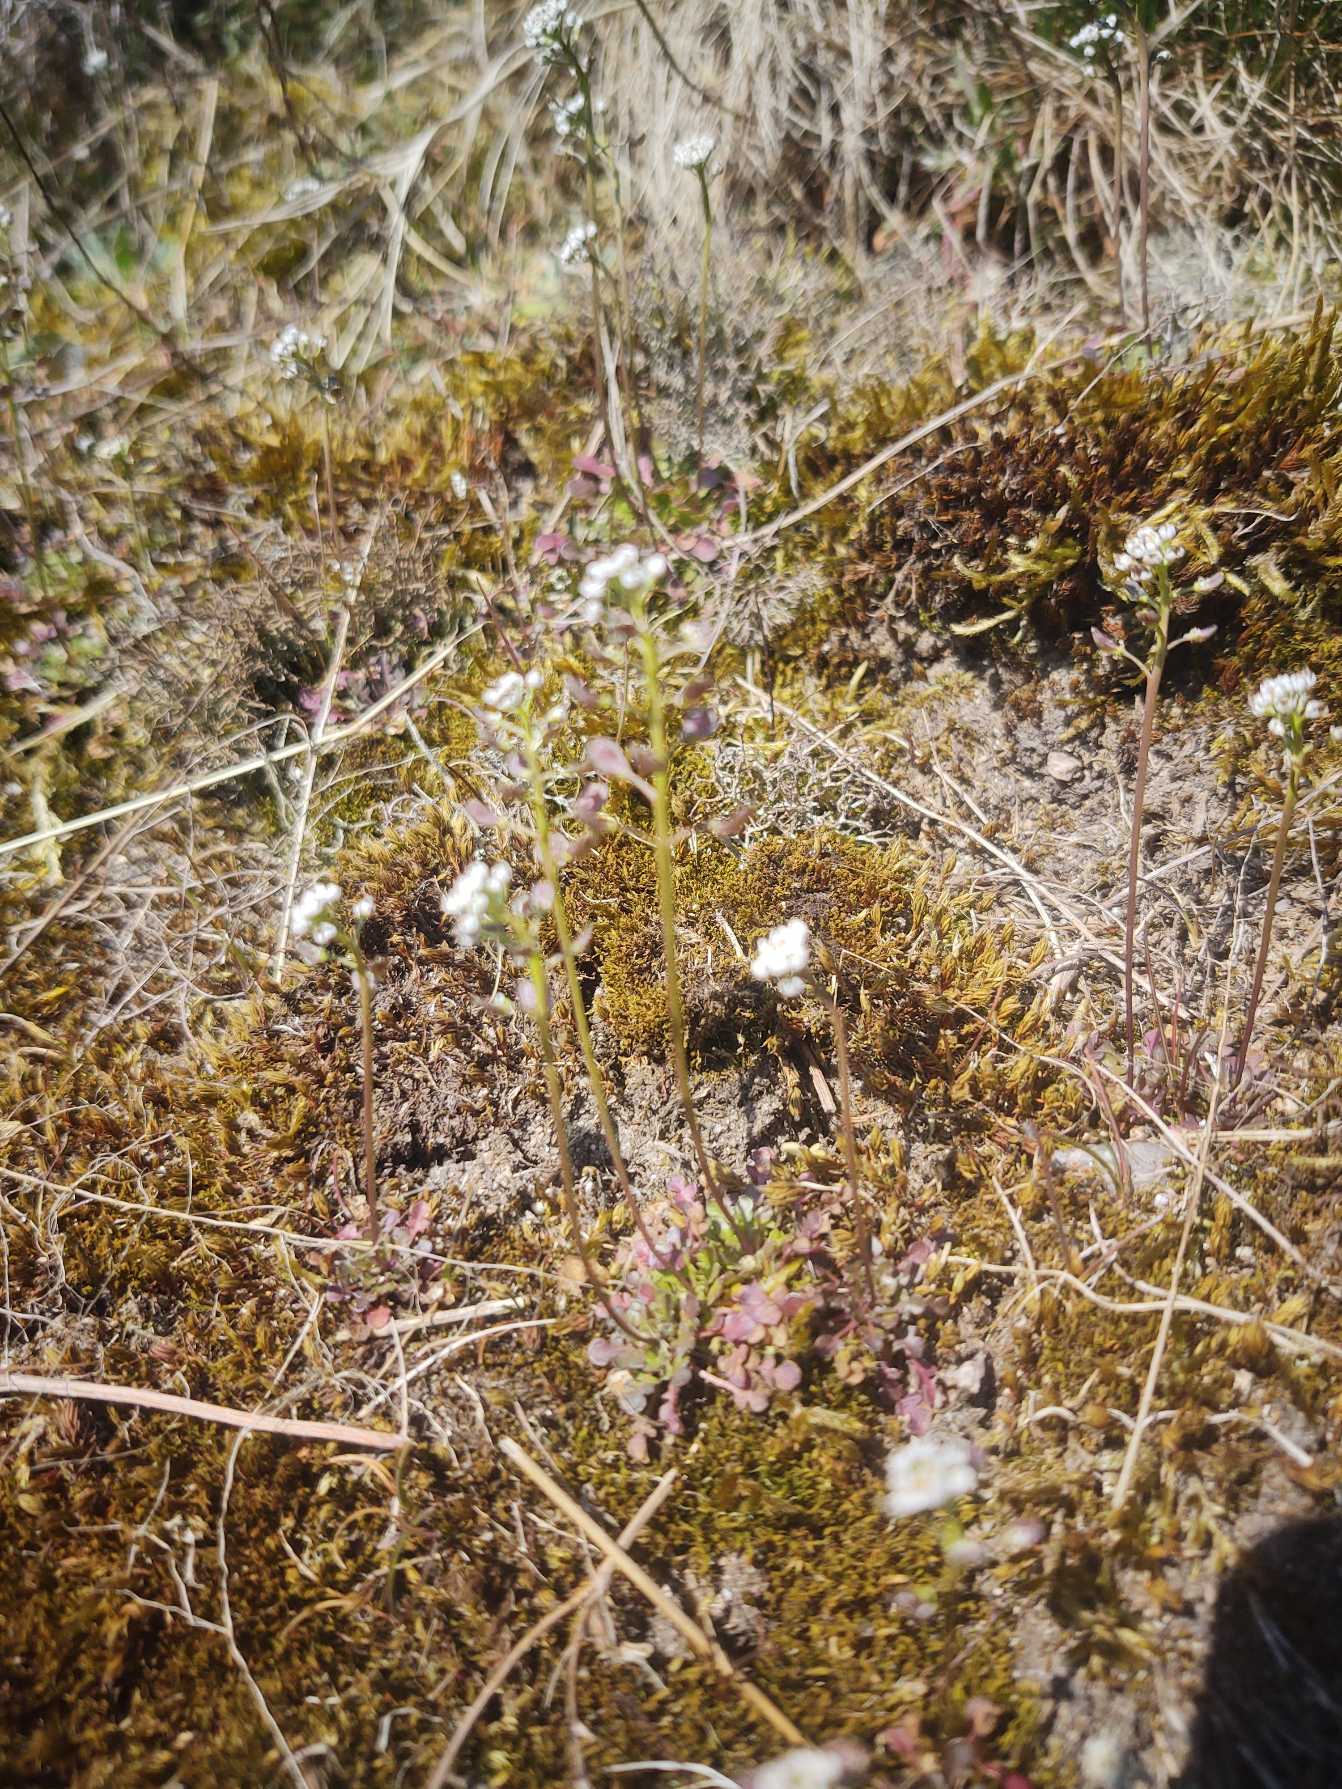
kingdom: Plantae
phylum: Tracheophyta
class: Magnoliopsida
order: Brassicales
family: Brassicaceae
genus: Teesdalia
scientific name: Teesdalia nudicaulis
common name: Flipkrave
